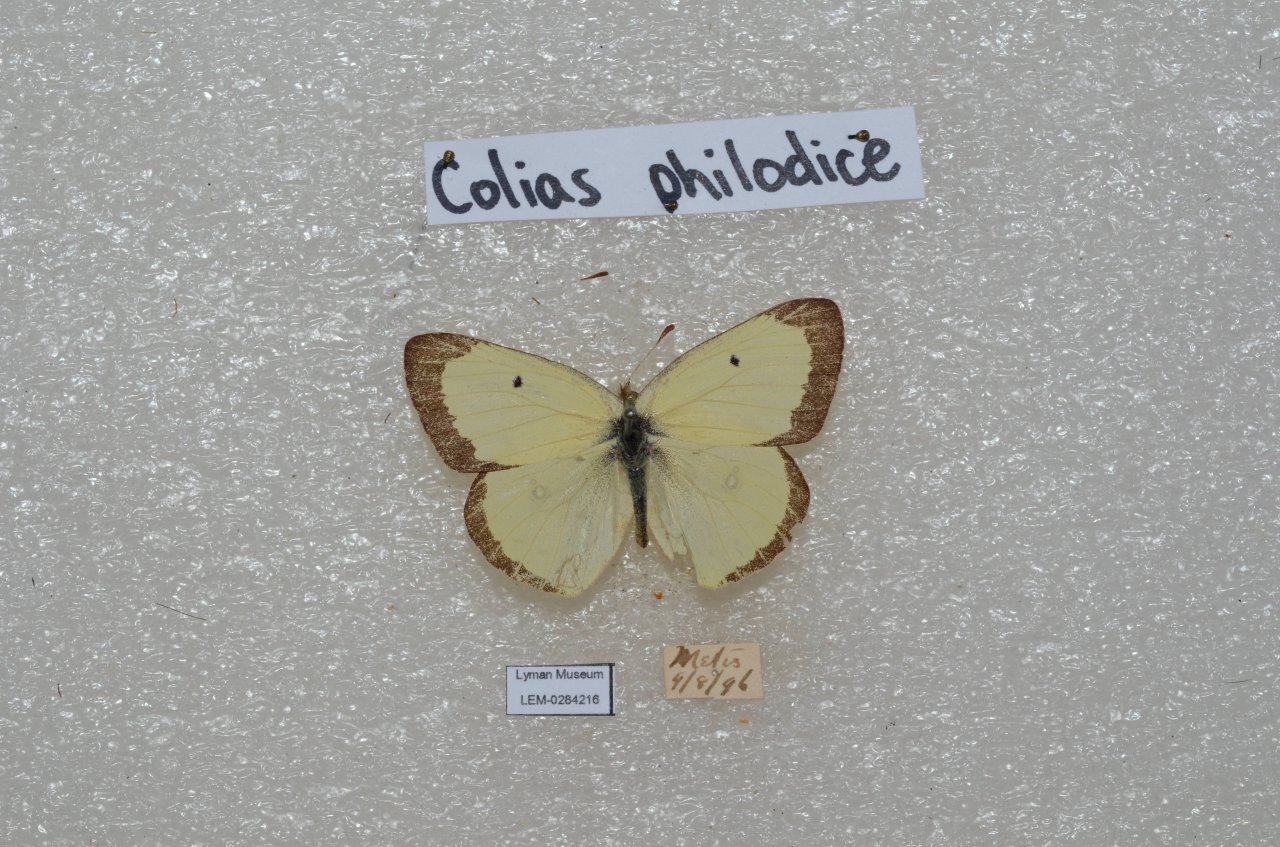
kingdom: Animalia
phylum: Arthropoda
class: Insecta
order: Lepidoptera
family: Pieridae
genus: Colias
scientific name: Colias philodice
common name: Clouded Sulphur
